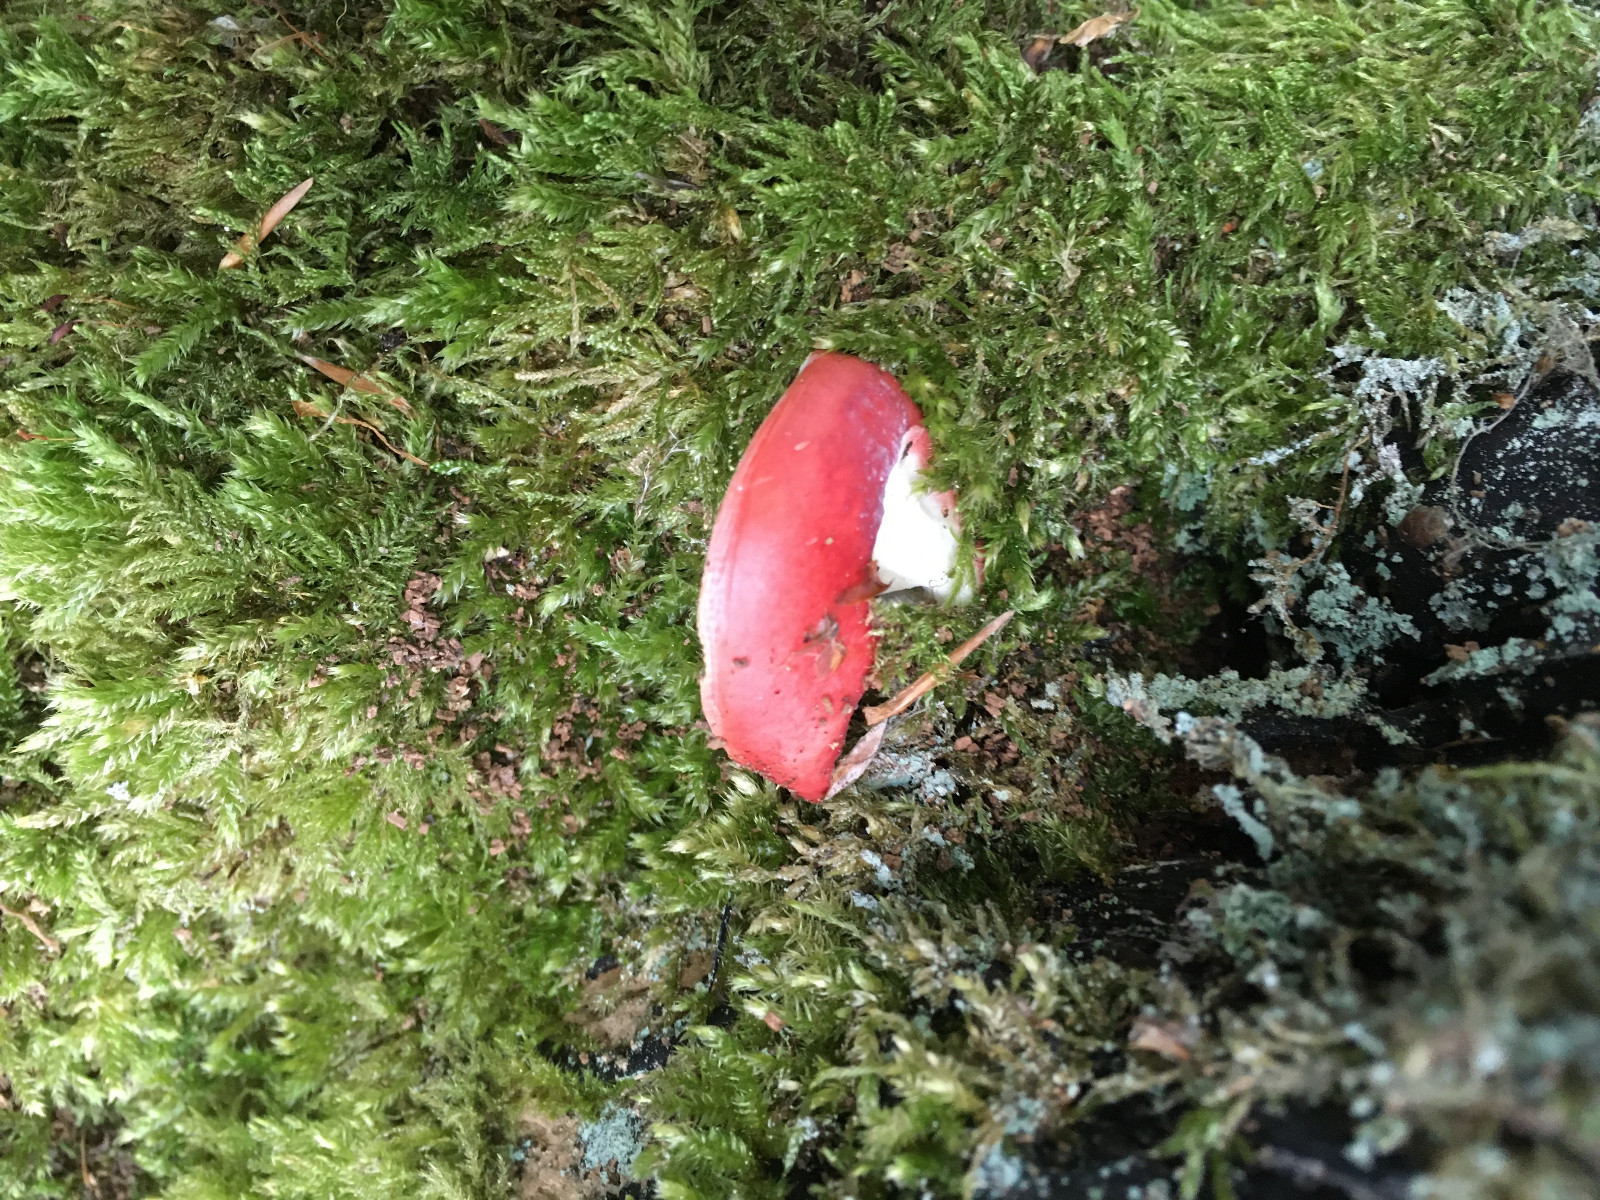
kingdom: Fungi
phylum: Basidiomycota
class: Agaricomycetes
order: Russulales
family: Russulaceae
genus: Russula
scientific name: Russula
